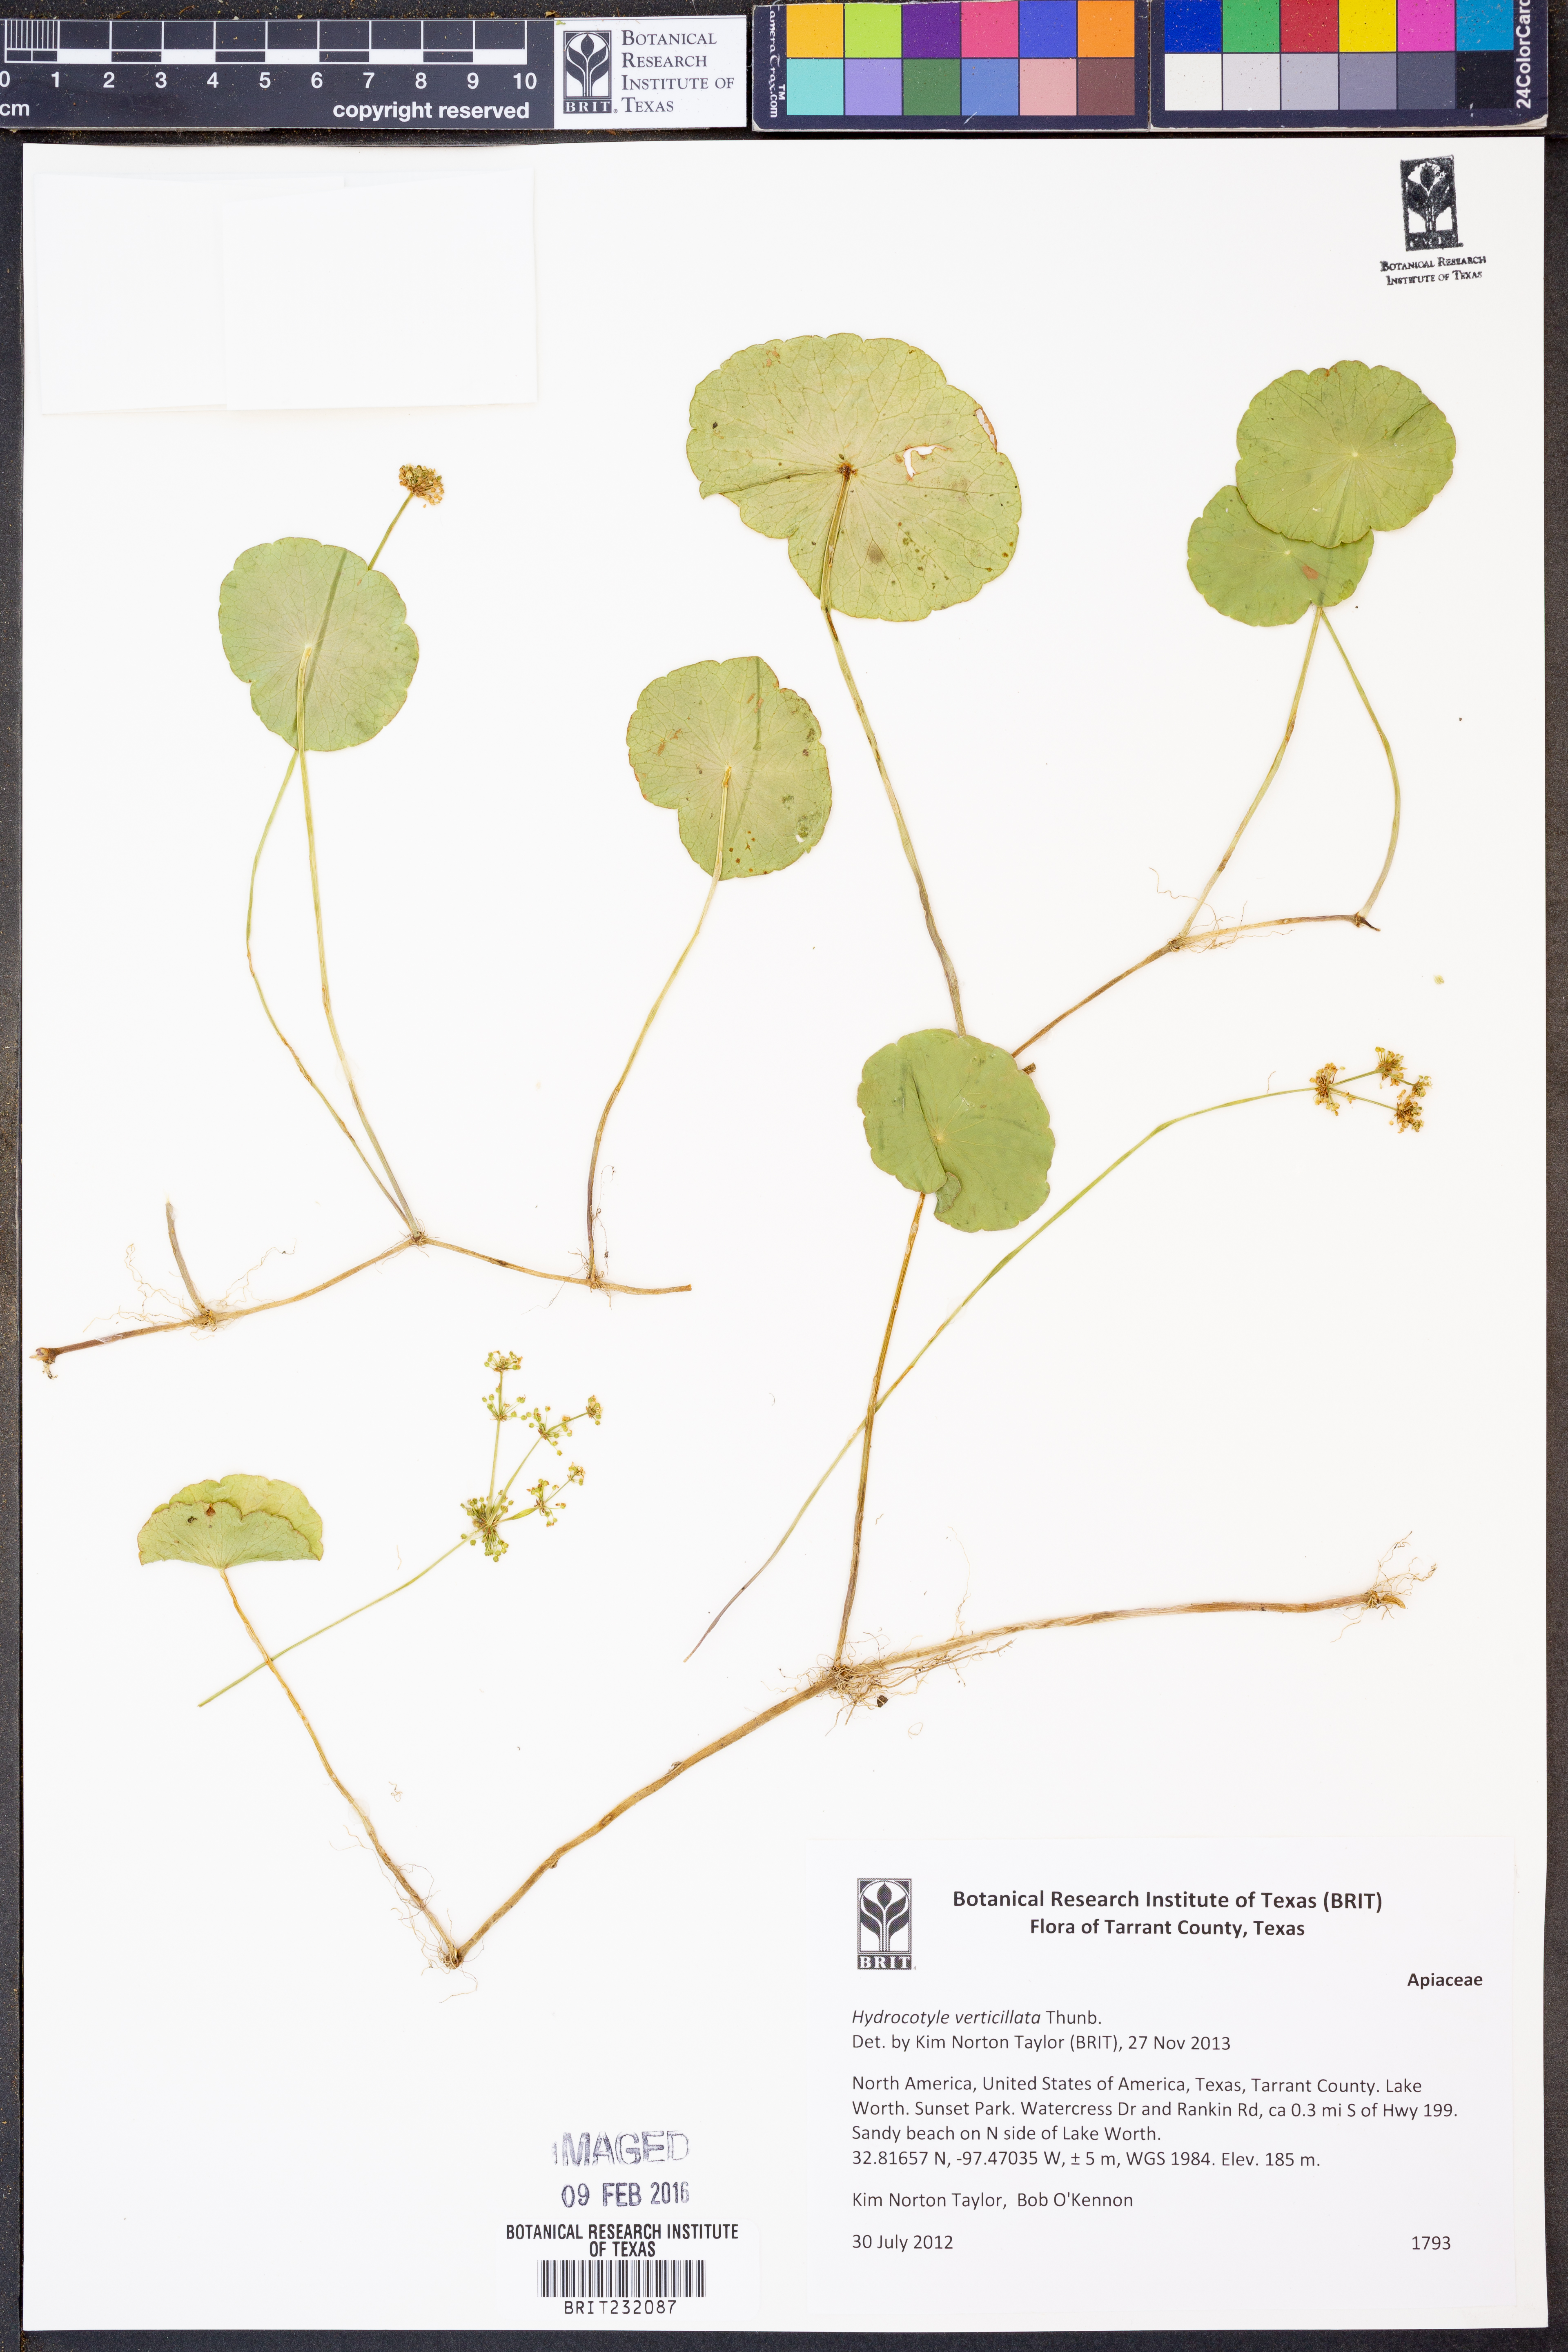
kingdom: Plantae
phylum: Tracheophyta
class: Magnoliopsida
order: Apiales
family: Araliaceae
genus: Hydrocotyle
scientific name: Hydrocotyle verticillata
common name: Whorled marshpennywort
